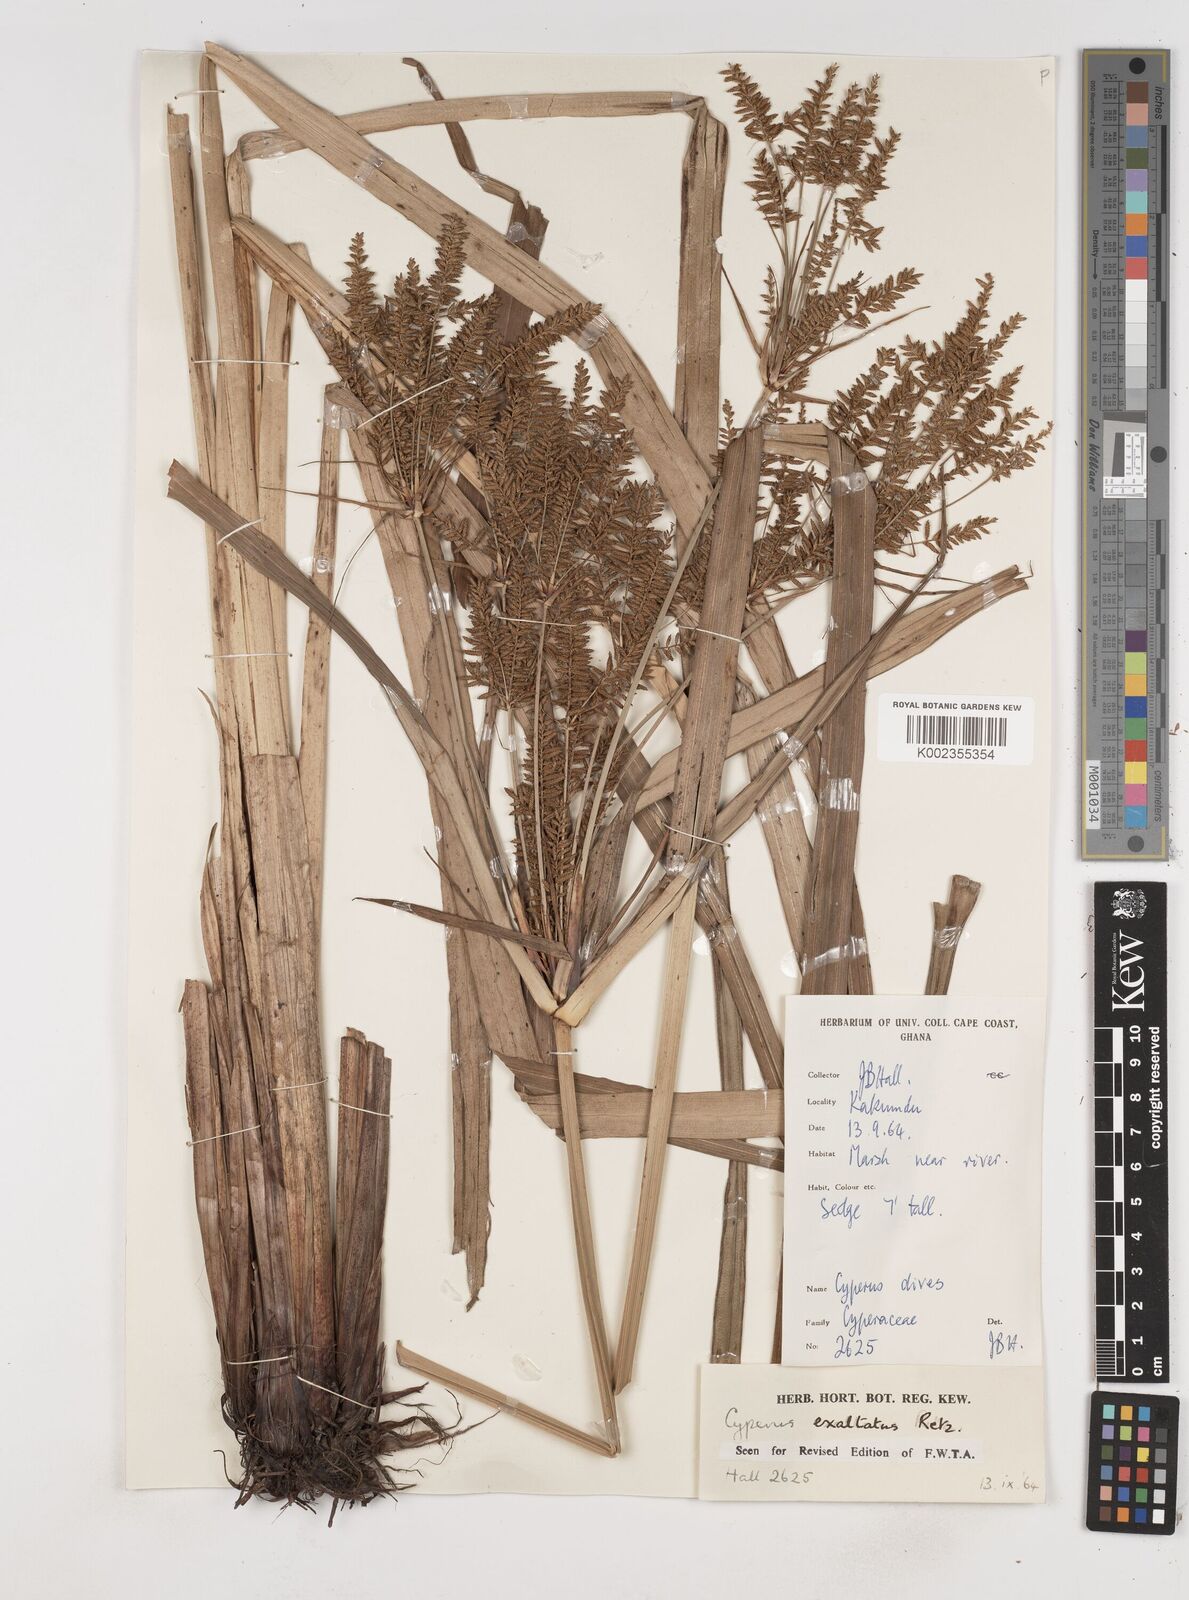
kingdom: Plantae
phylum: Tracheophyta
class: Liliopsida
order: Poales
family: Cyperaceae
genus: Cyperus
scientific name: Cyperus exaltatus
